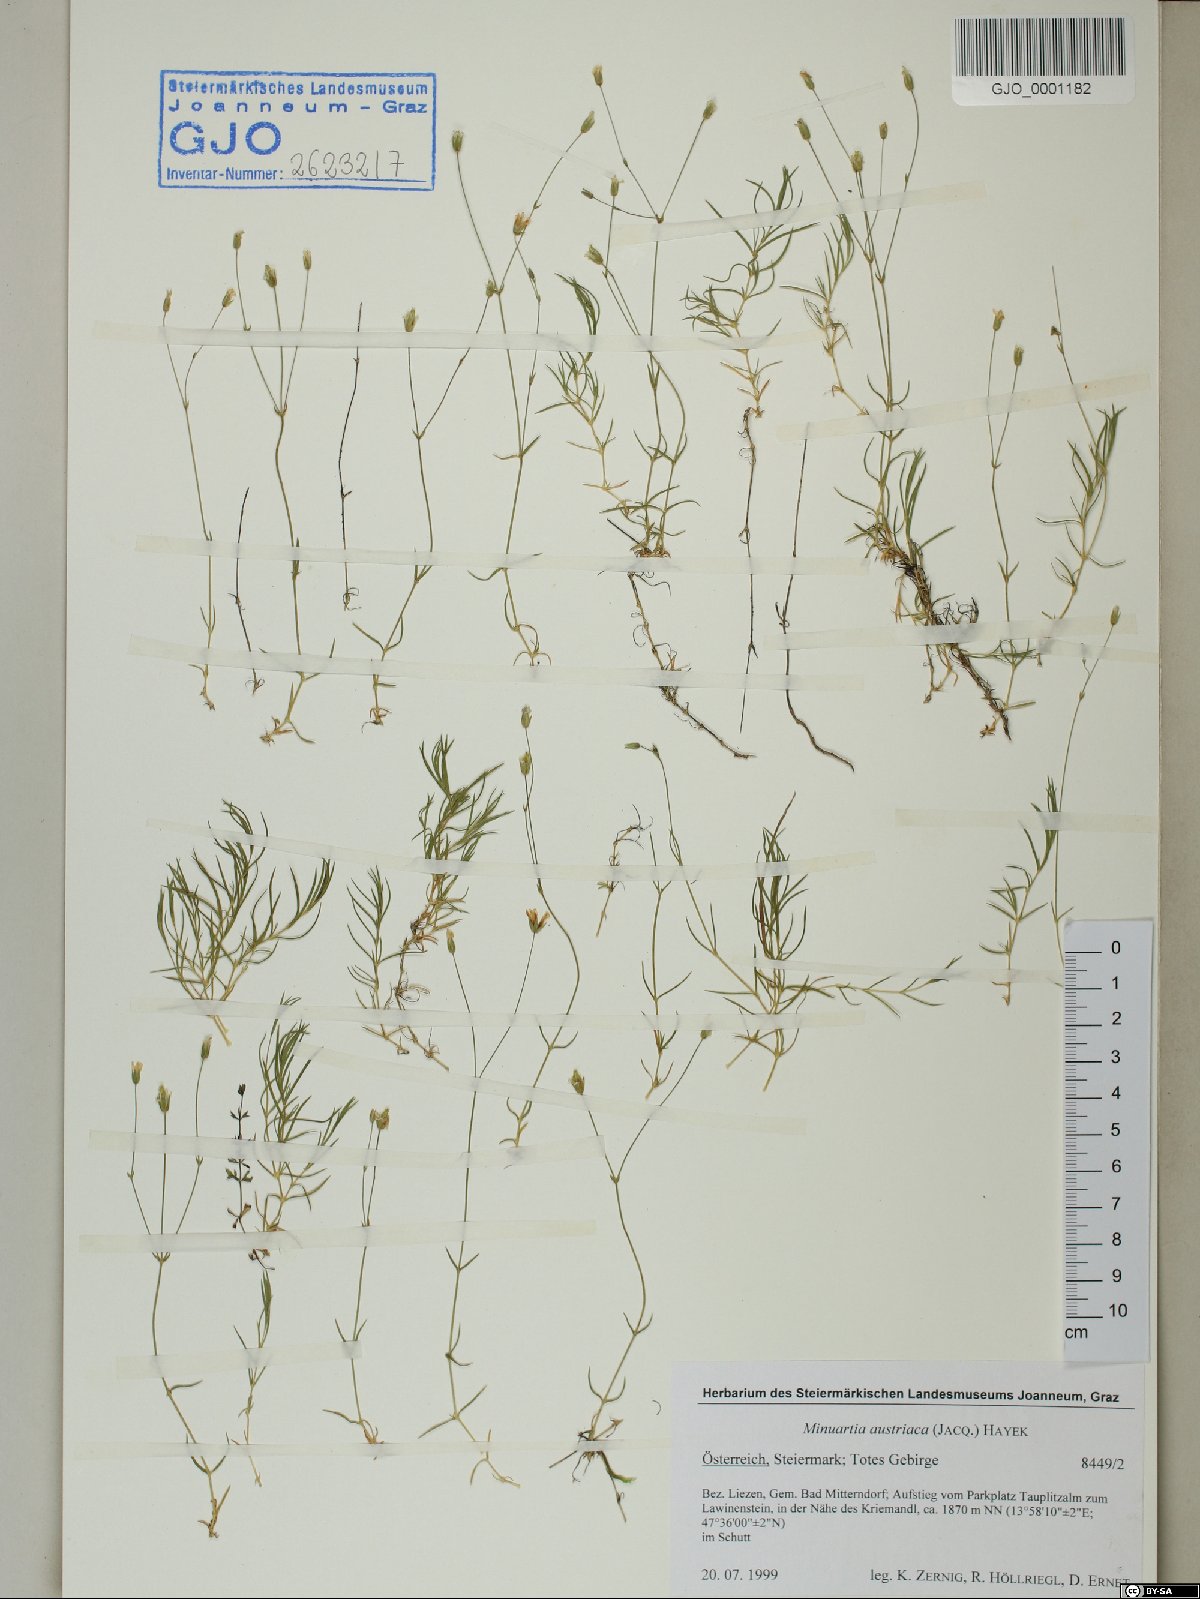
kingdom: Plantae
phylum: Tracheophyta
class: Magnoliopsida
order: Caryophyllales
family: Caryophyllaceae
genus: Sabulina
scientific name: Sabulina austriaca
